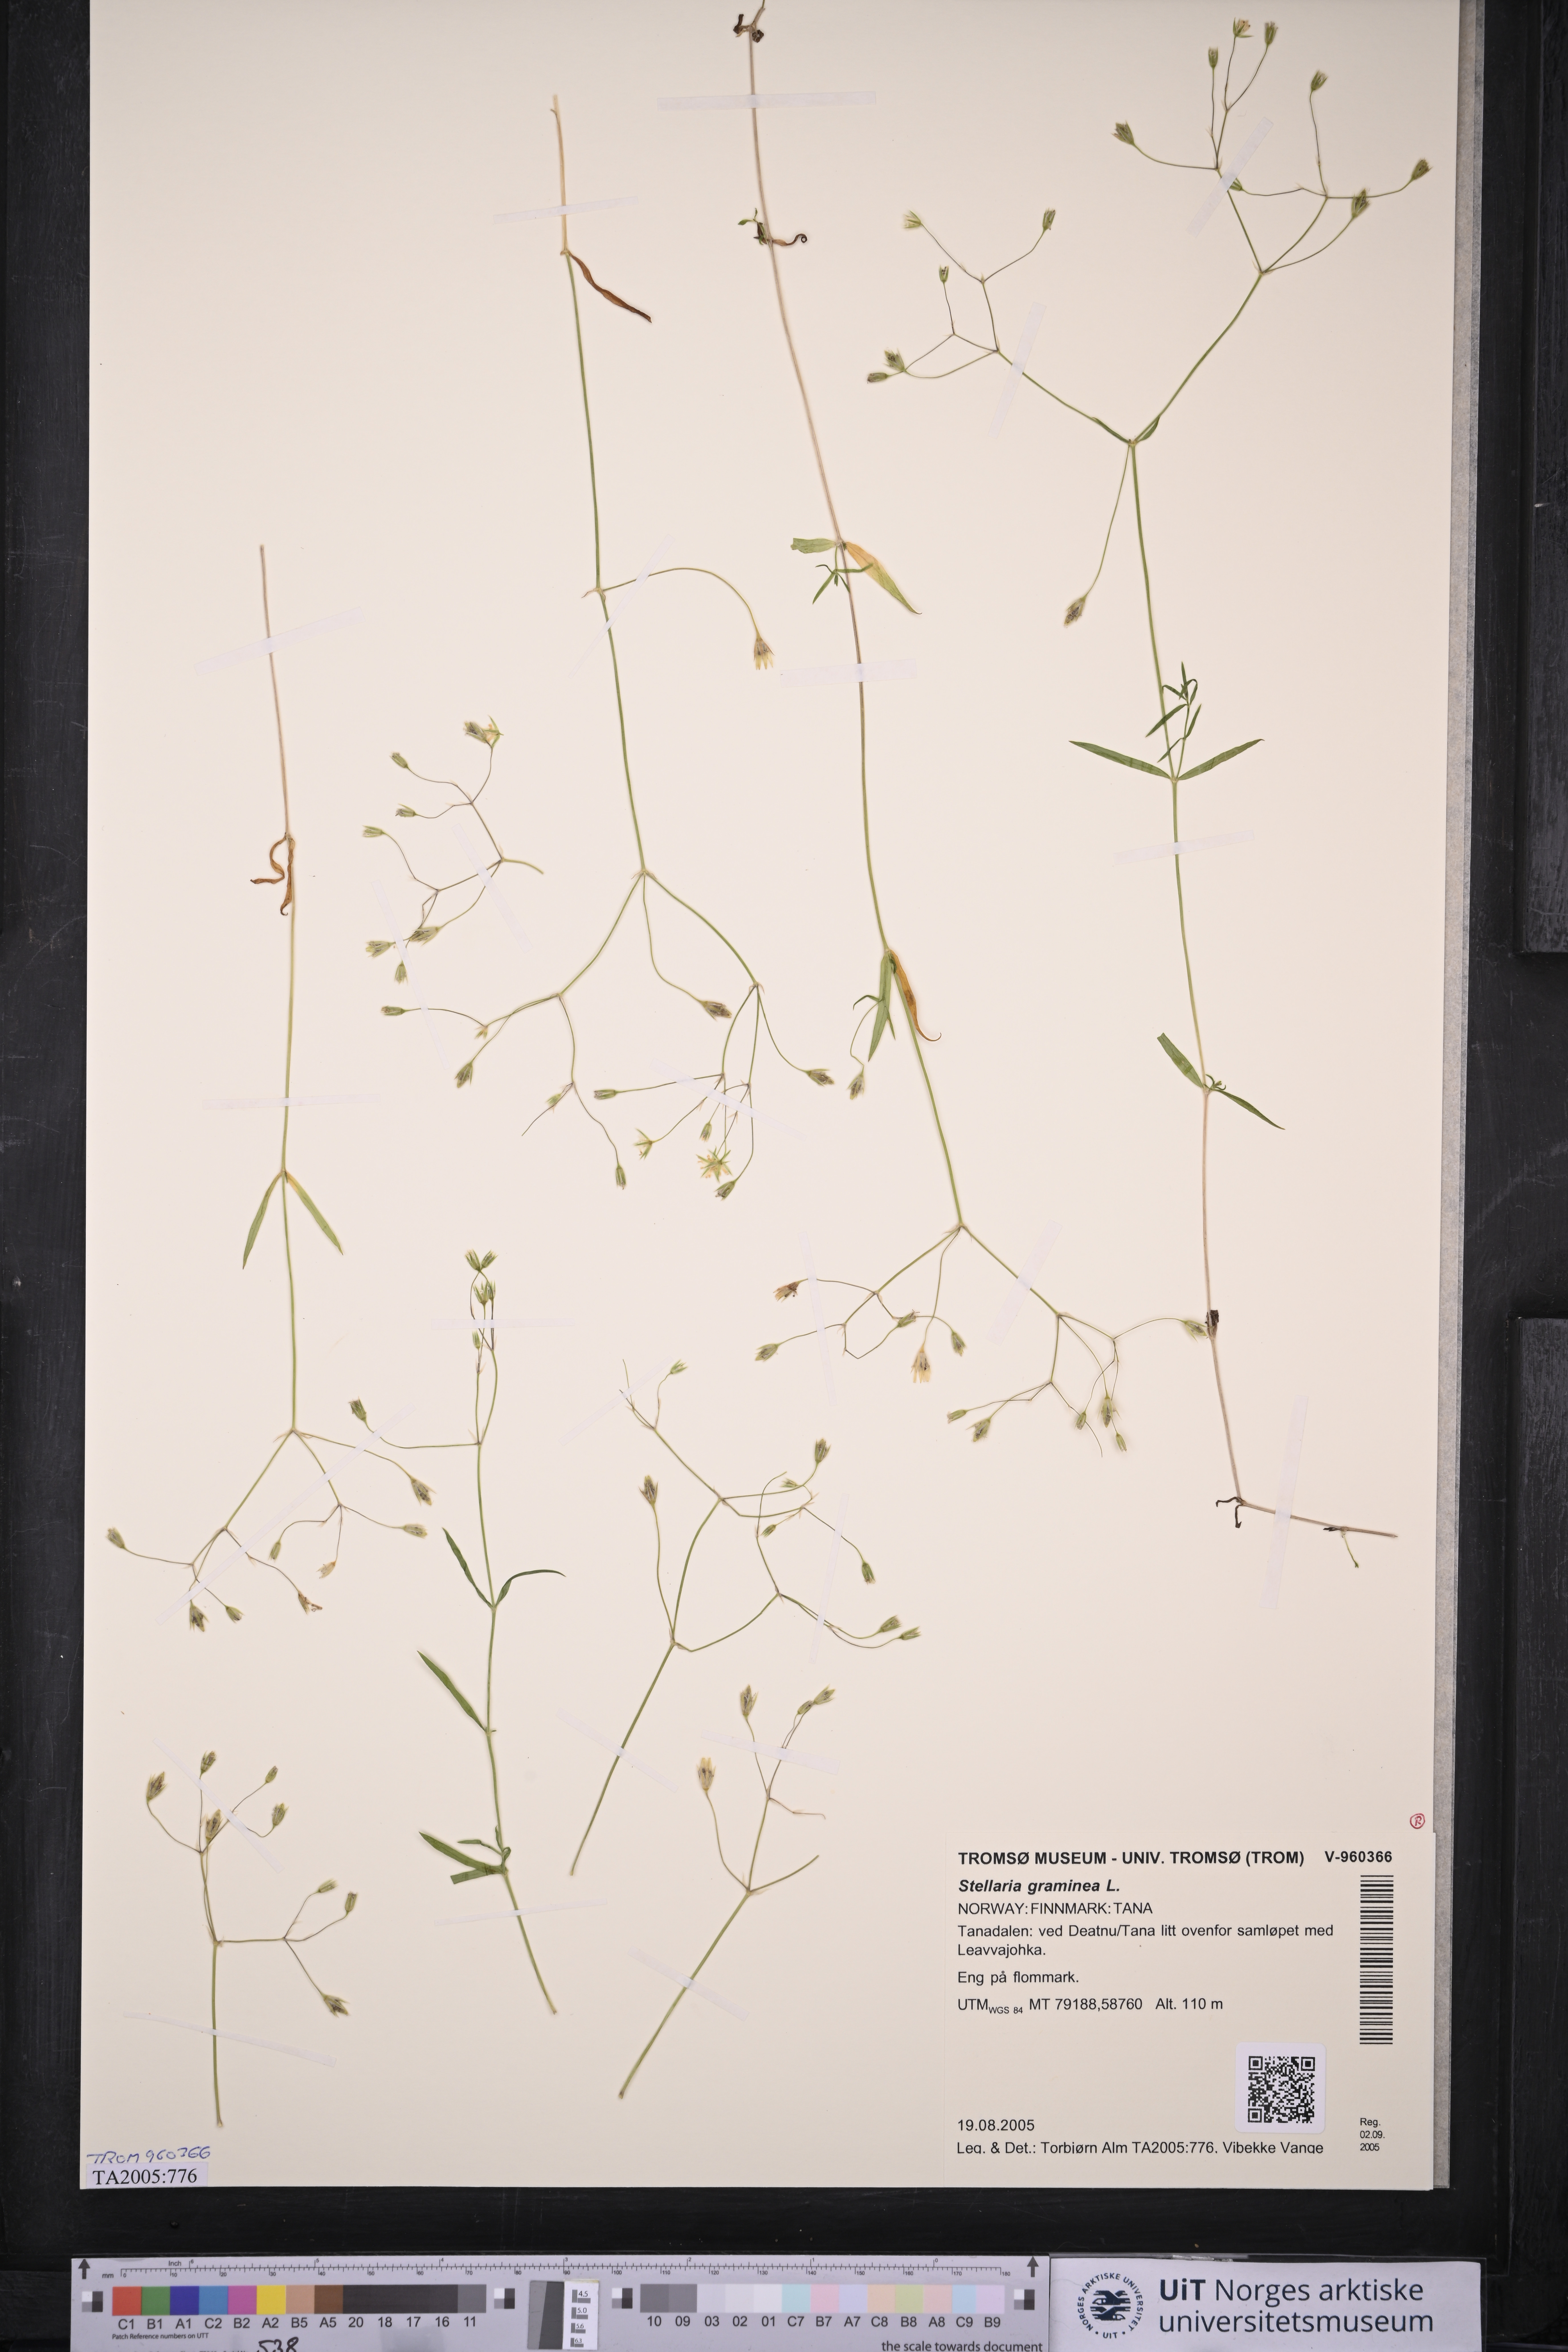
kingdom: Plantae
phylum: Tracheophyta
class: Magnoliopsida
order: Caryophyllales
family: Caryophyllaceae
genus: Stellaria
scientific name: Stellaria graminea
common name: Grass-like starwort
